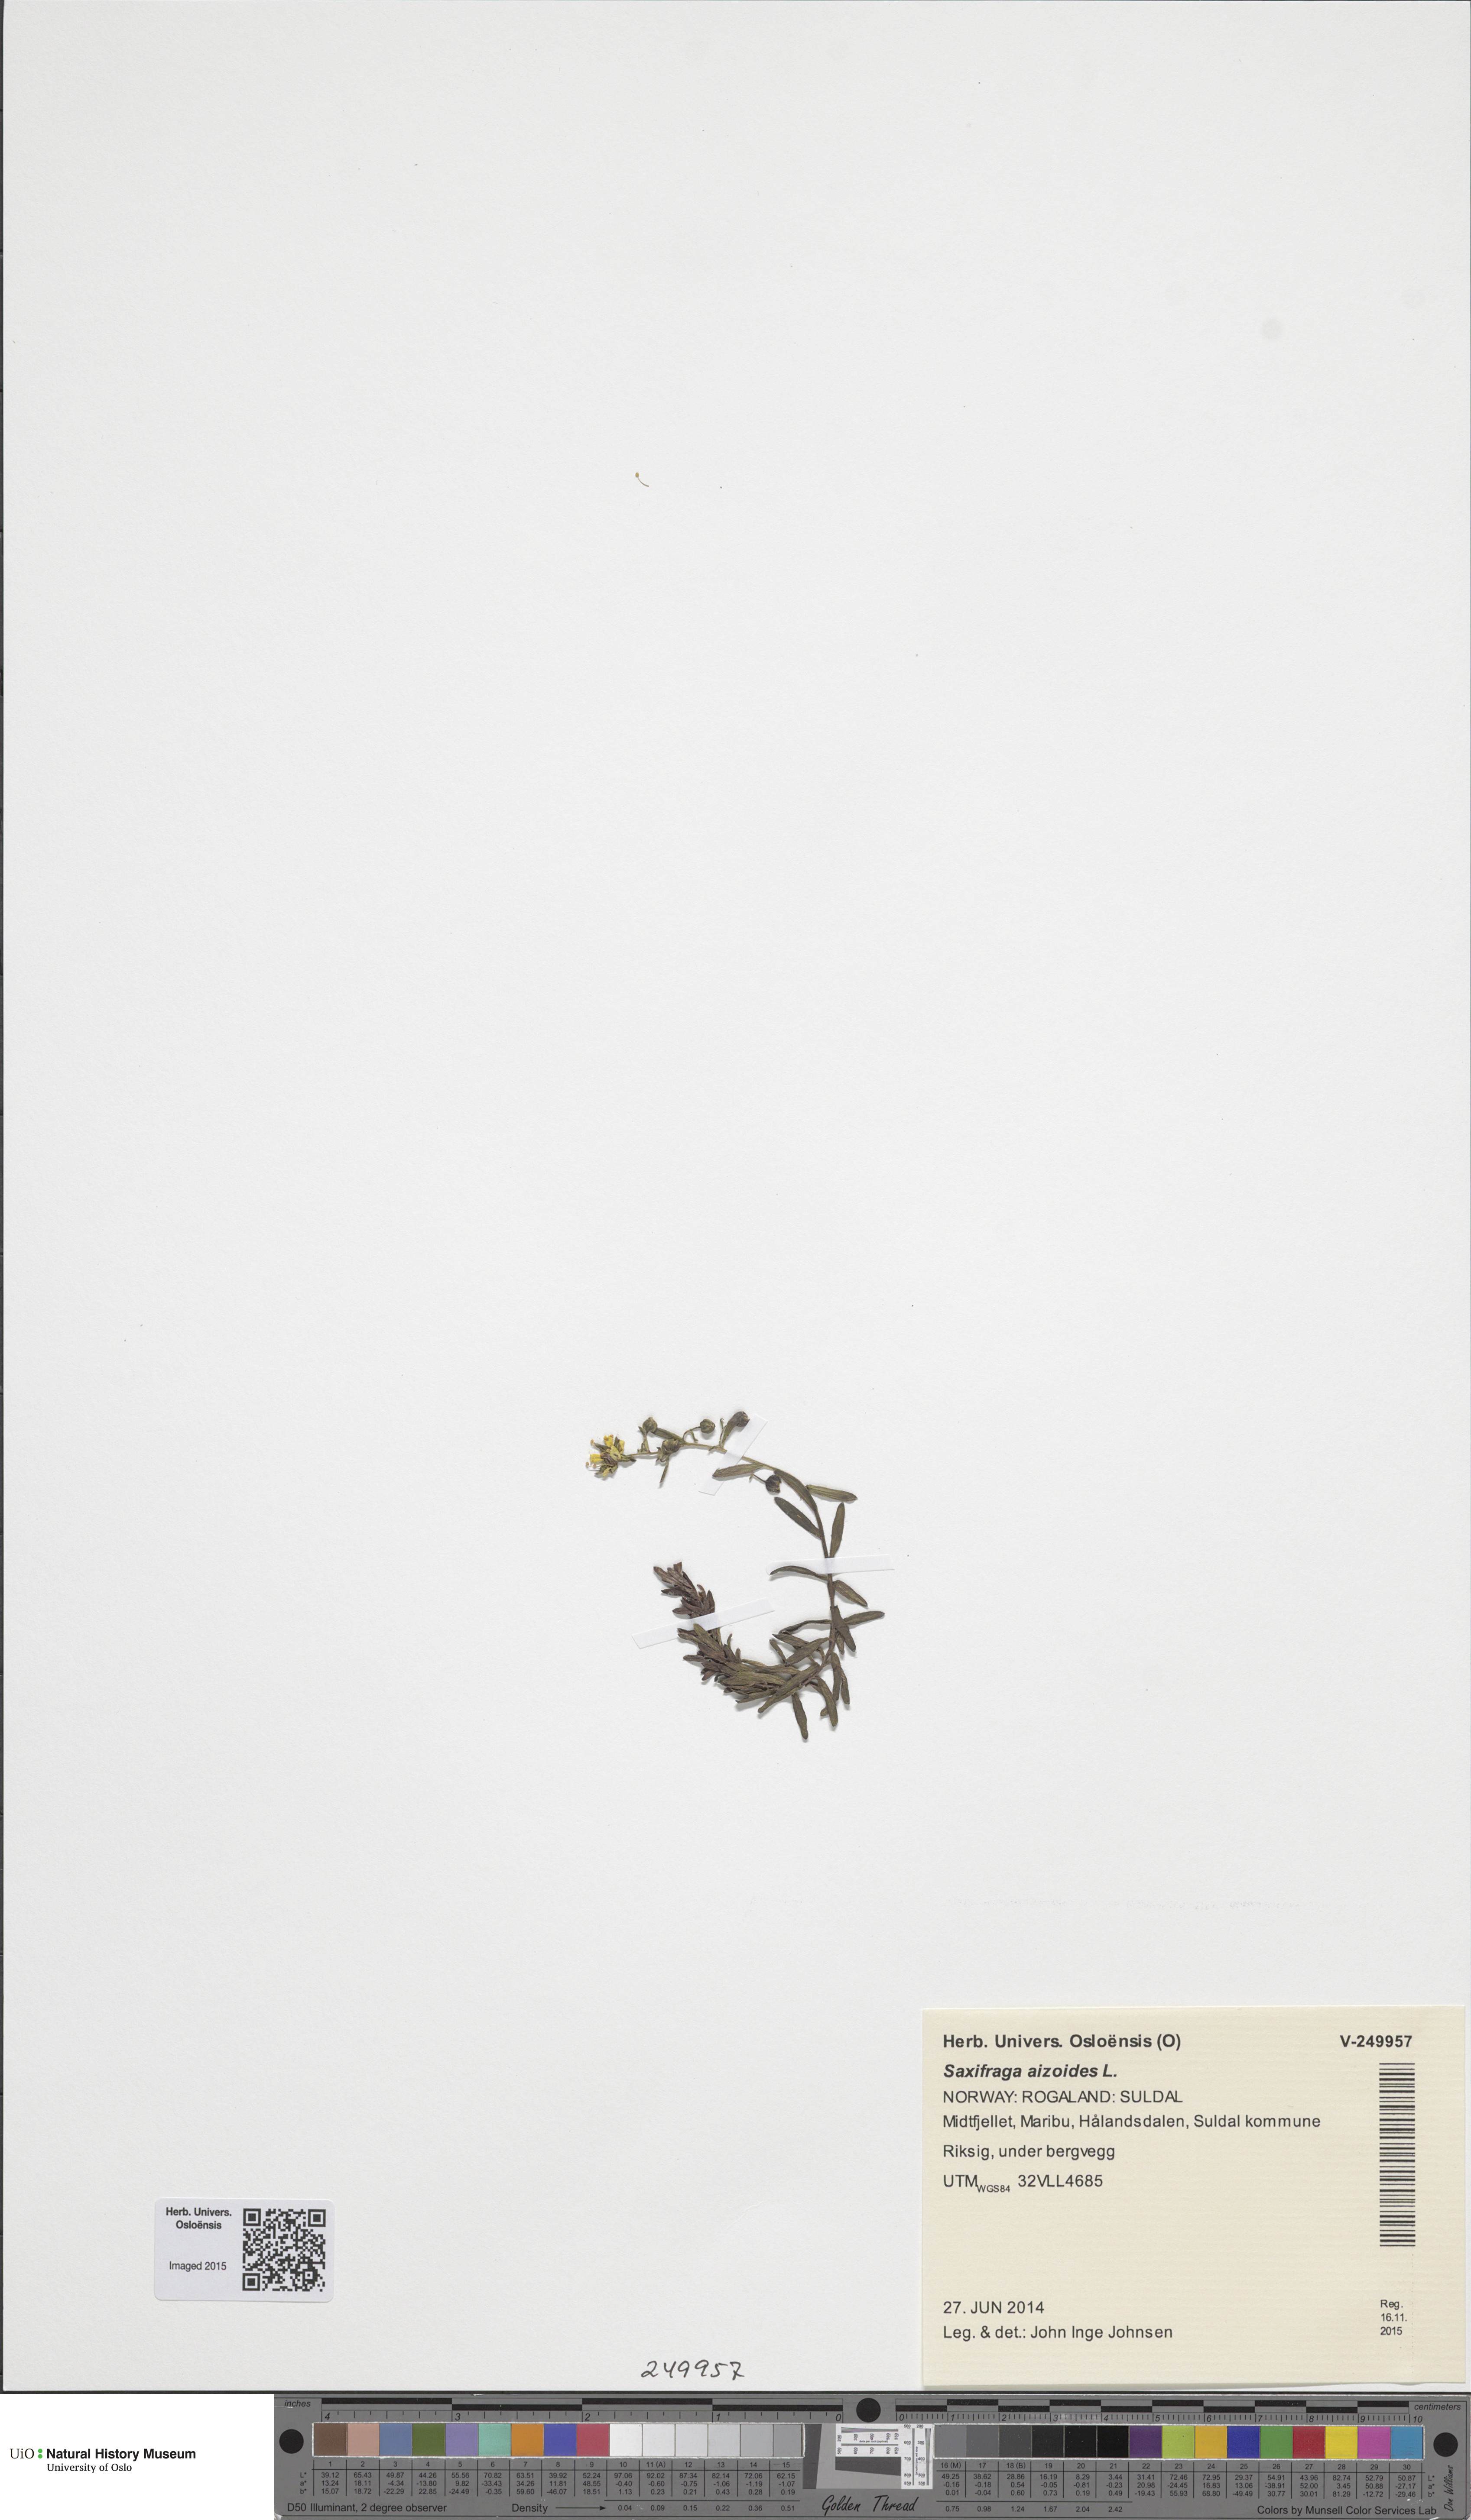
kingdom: Plantae
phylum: Tracheophyta
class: Magnoliopsida
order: Saxifragales
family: Saxifragaceae
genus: Saxifraga
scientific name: Saxifraga aizoides
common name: Yellow mountain saxifrage
